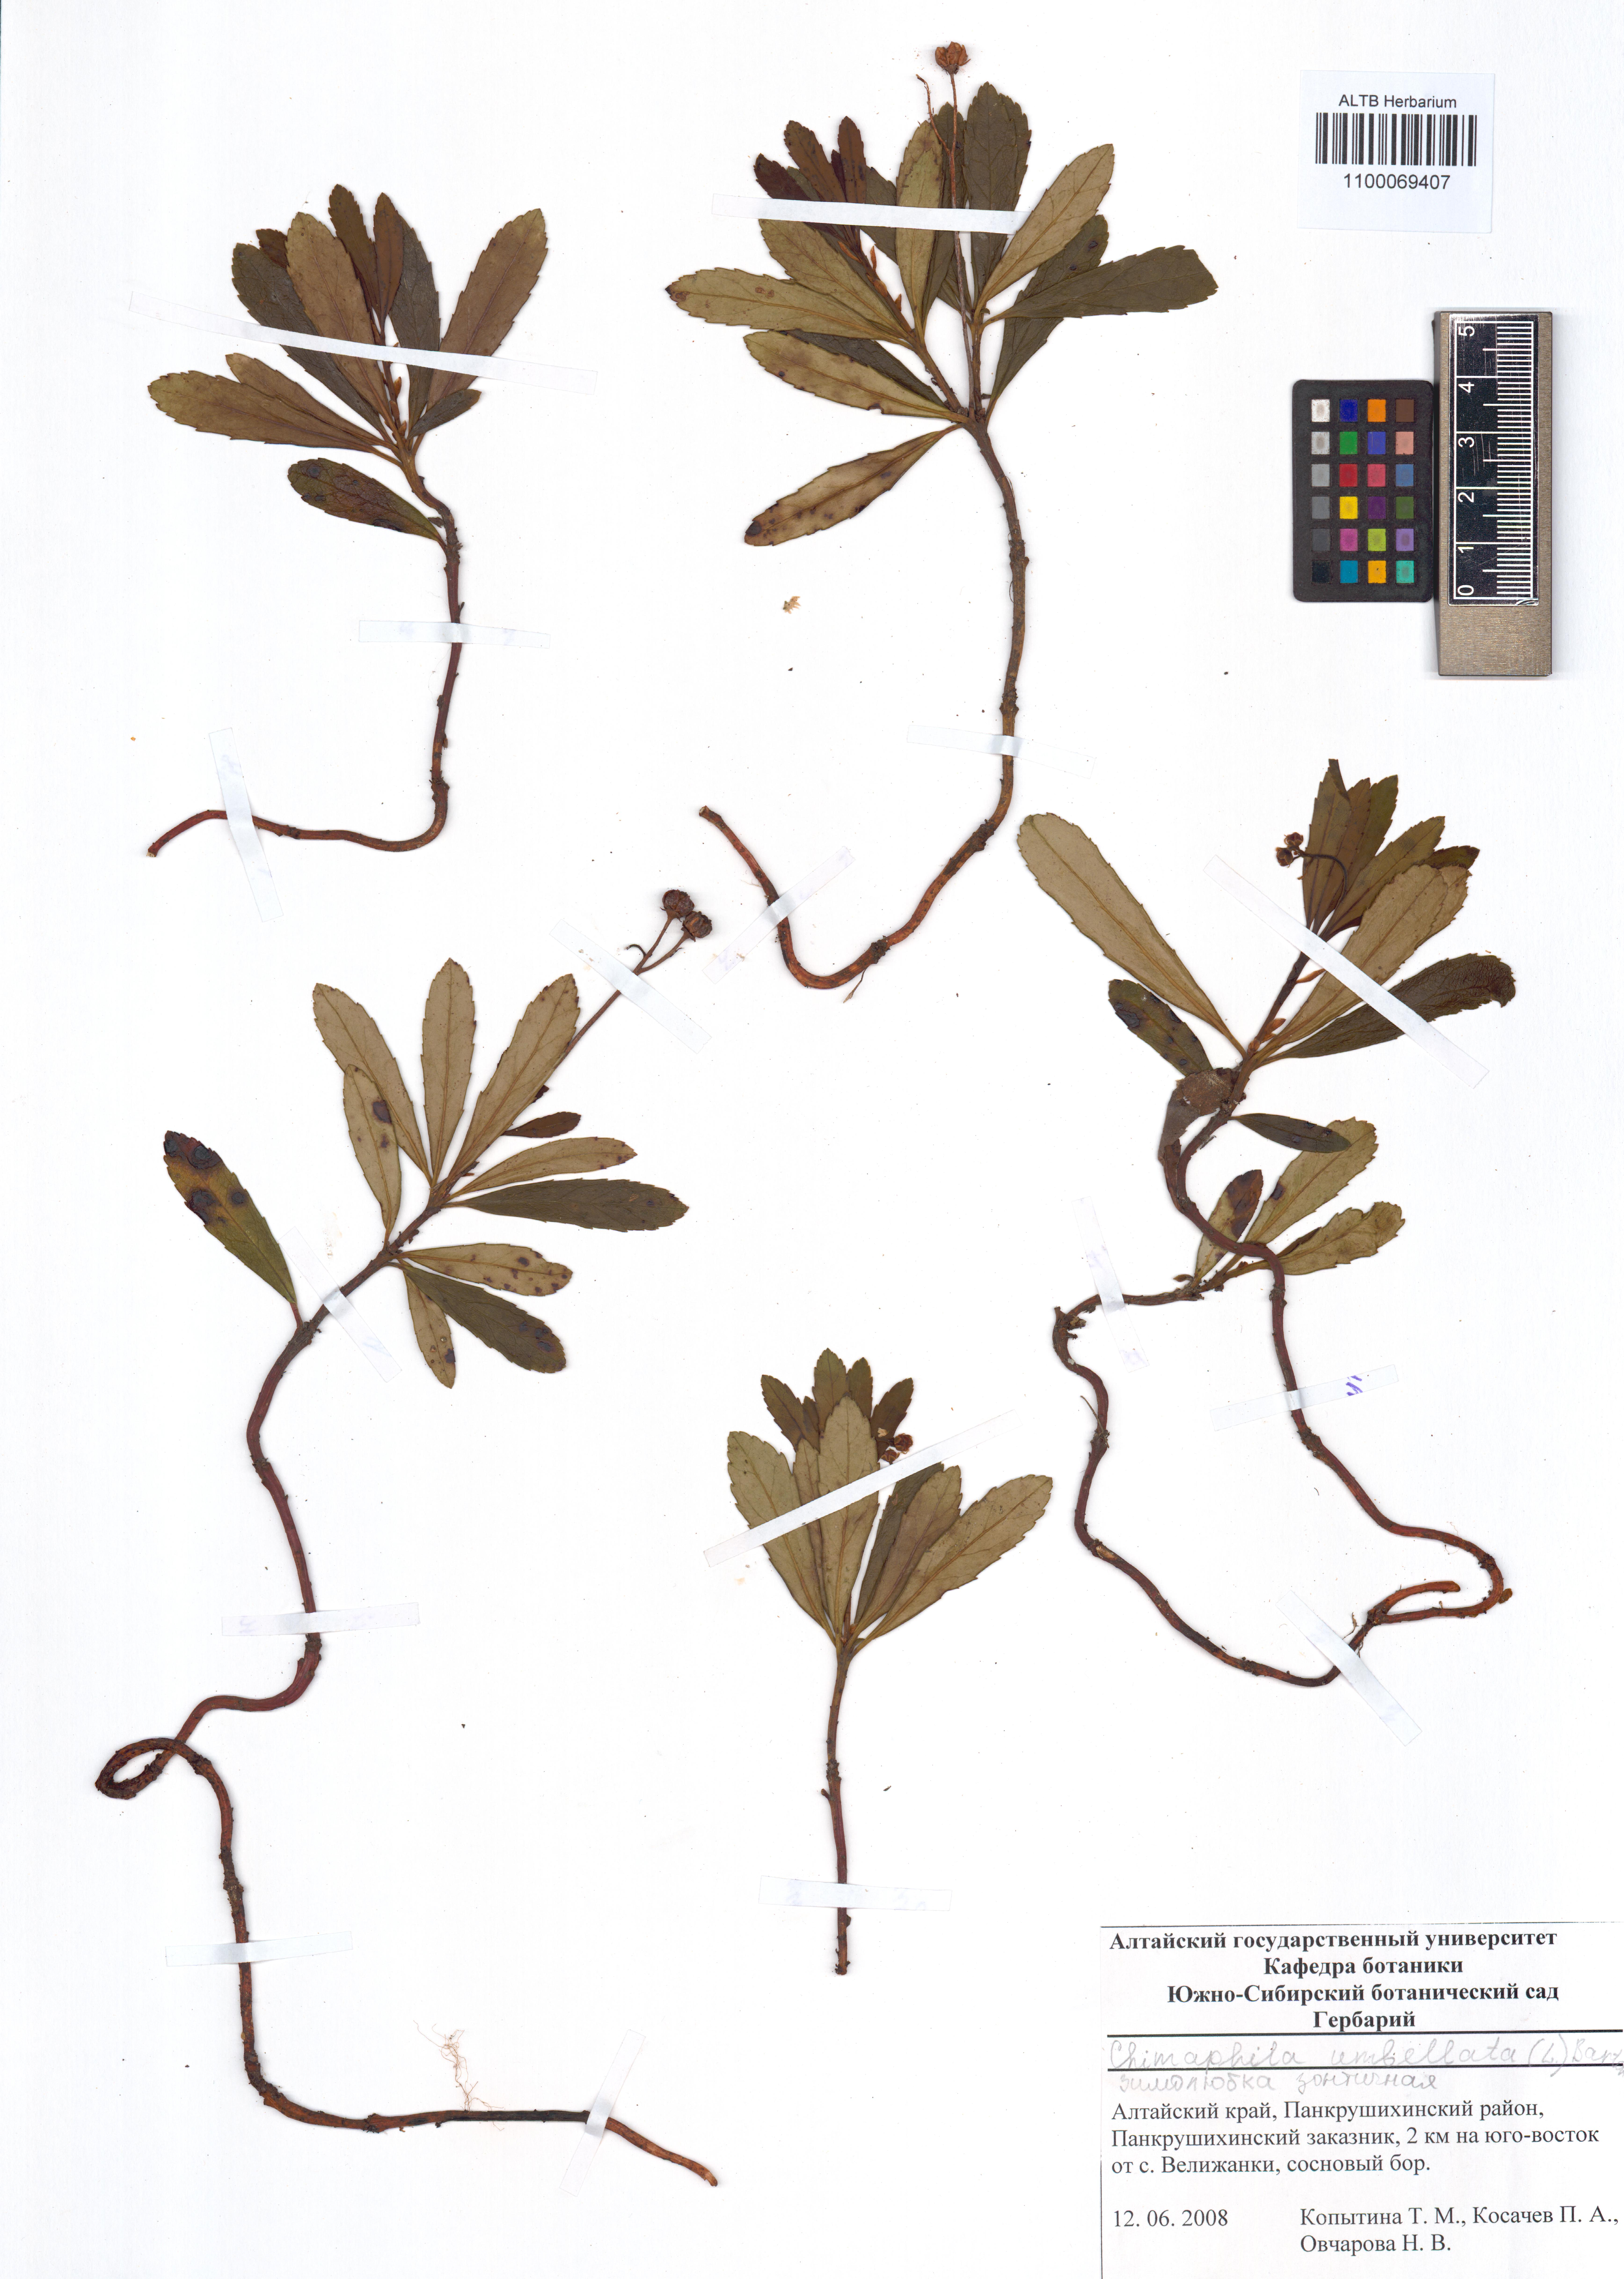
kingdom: Plantae
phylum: Tracheophyta
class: Magnoliopsida
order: Ericales
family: Ericaceae
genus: Chimaphila
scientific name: Chimaphila umbellata
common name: Pipsissewa
